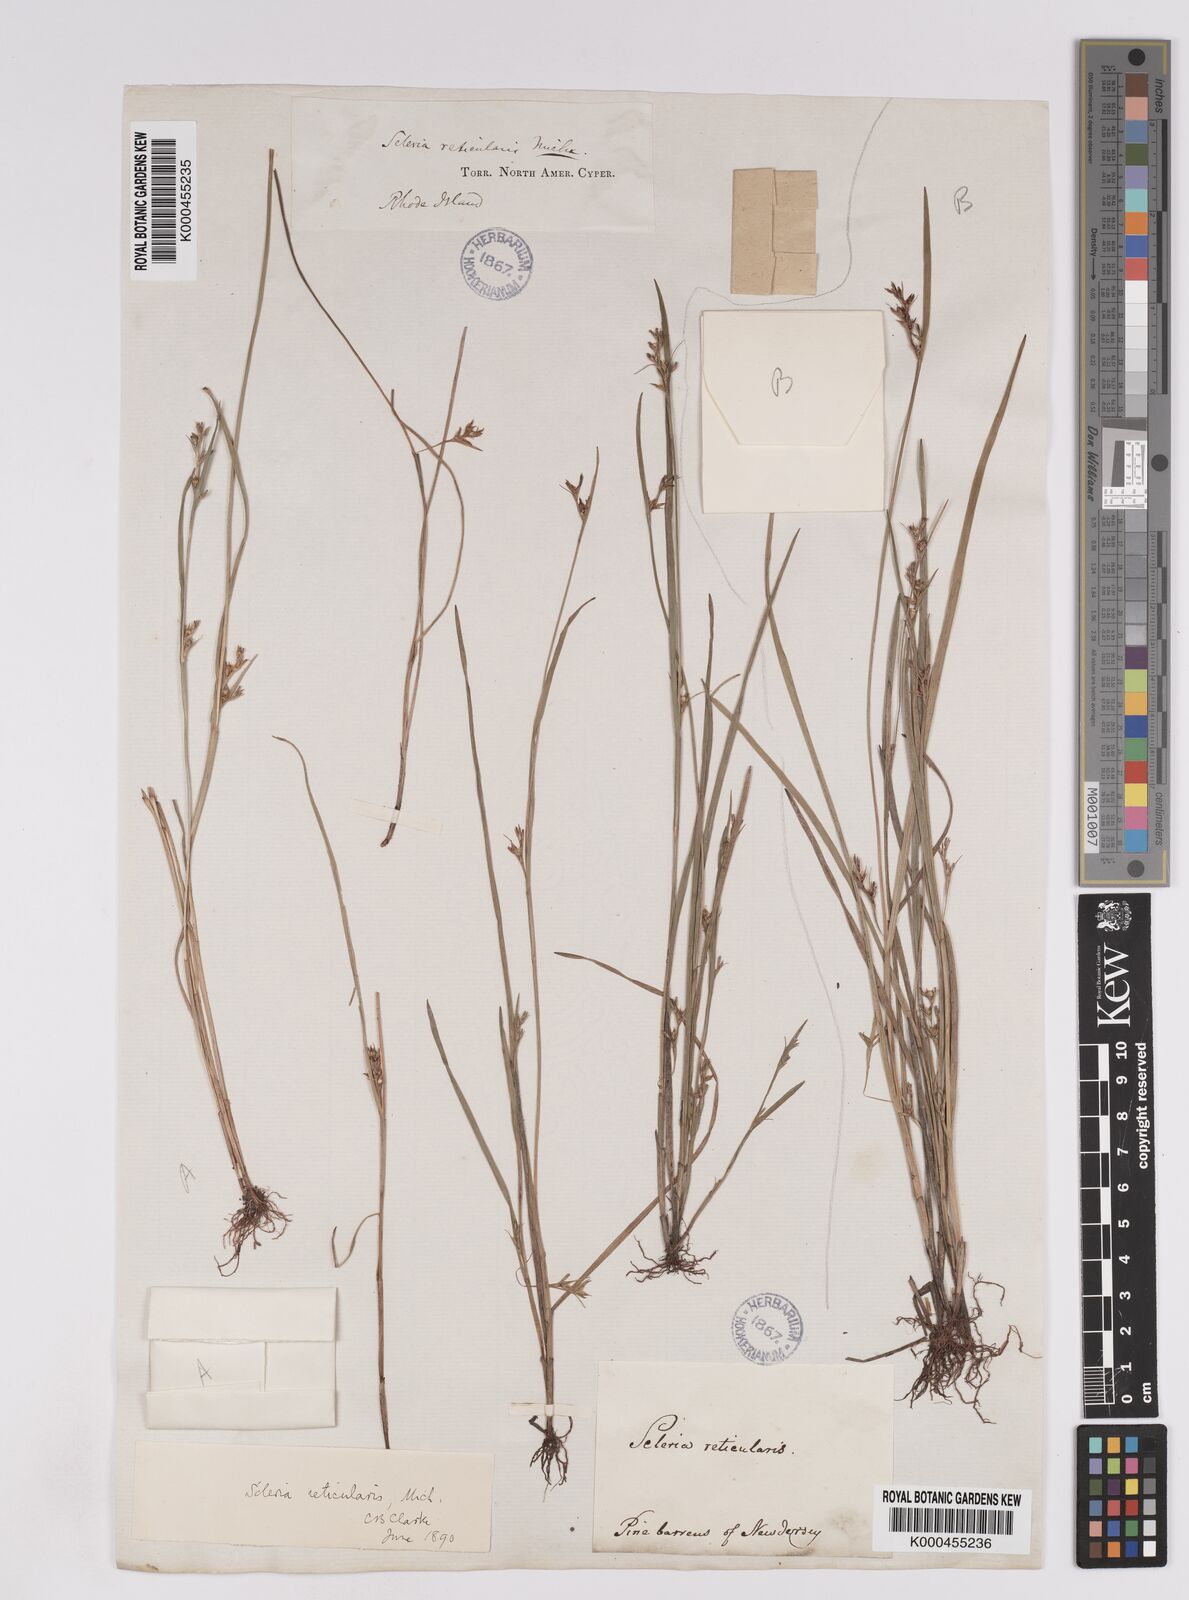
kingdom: Plantae
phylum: Tracheophyta
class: Liliopsida
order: Poales
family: Cyperaceae
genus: Scleria
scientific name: Scleria
